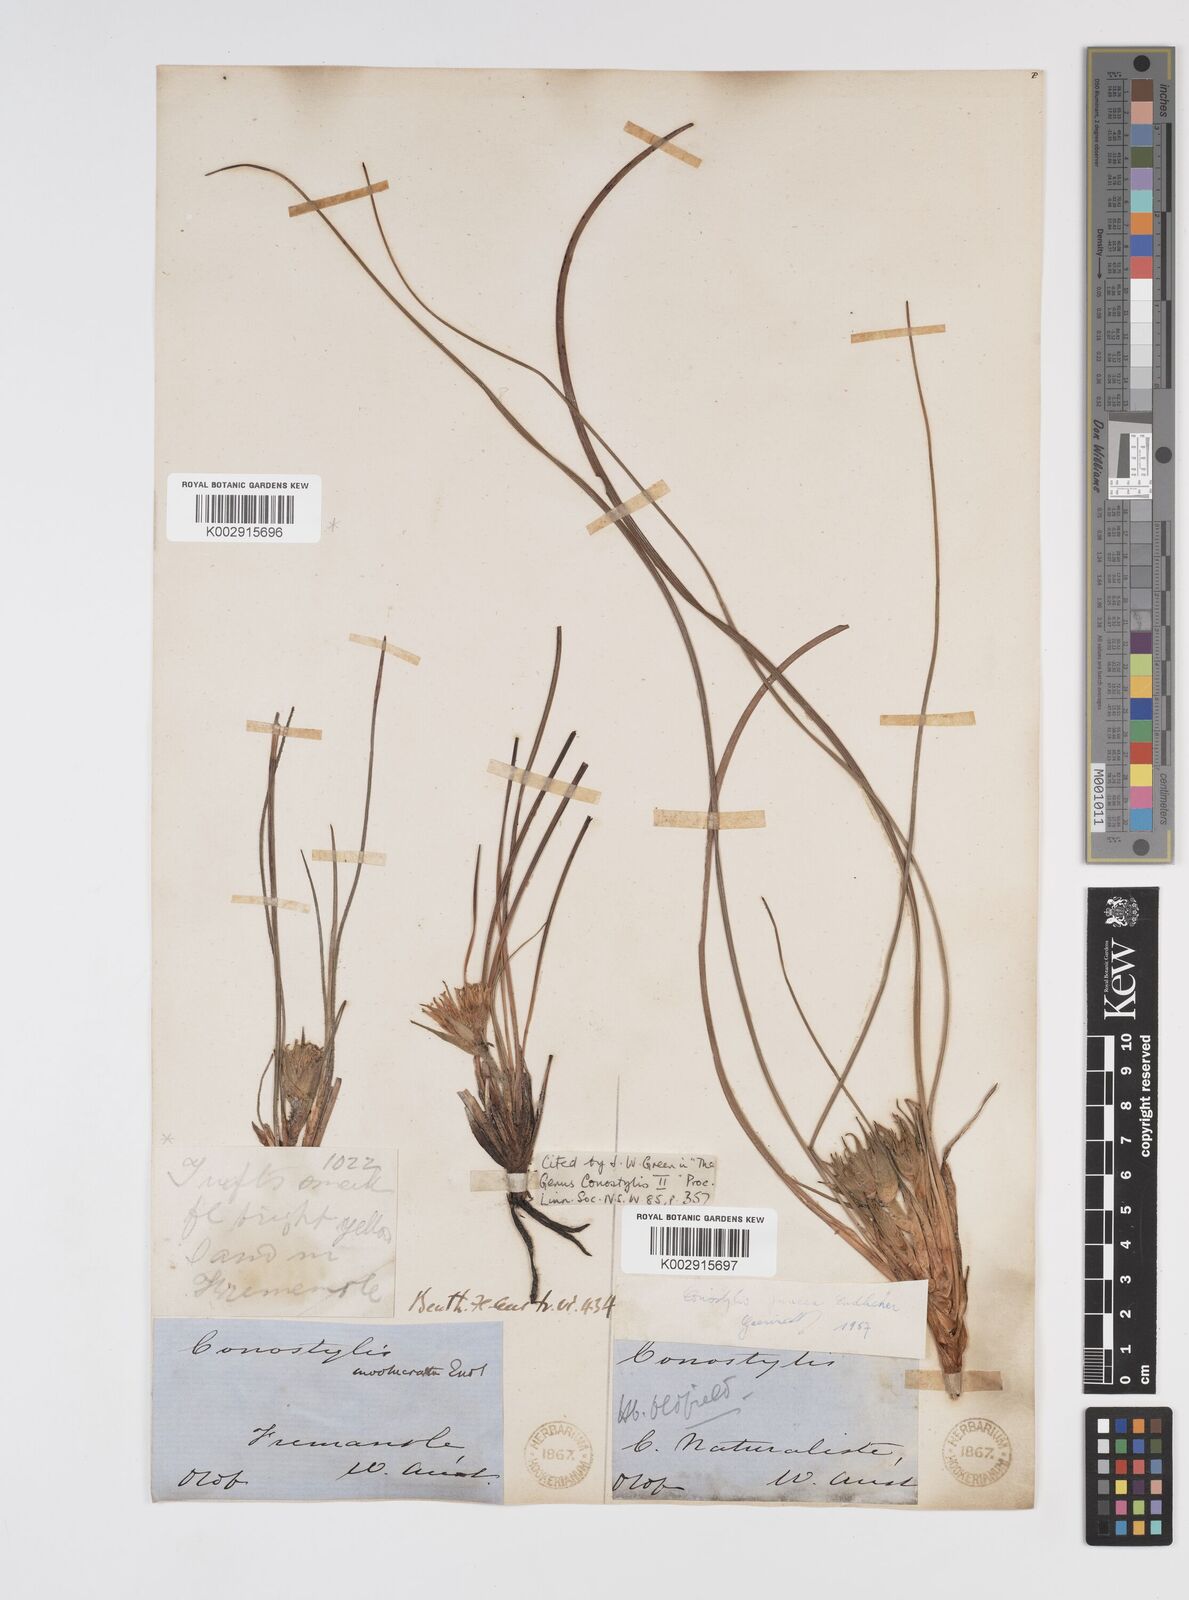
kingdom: Plantae
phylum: Tracheophyta
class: Liliopsida
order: Commelinales
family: Haemodoraceae
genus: Conostylis
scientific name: Conostylis juncea
